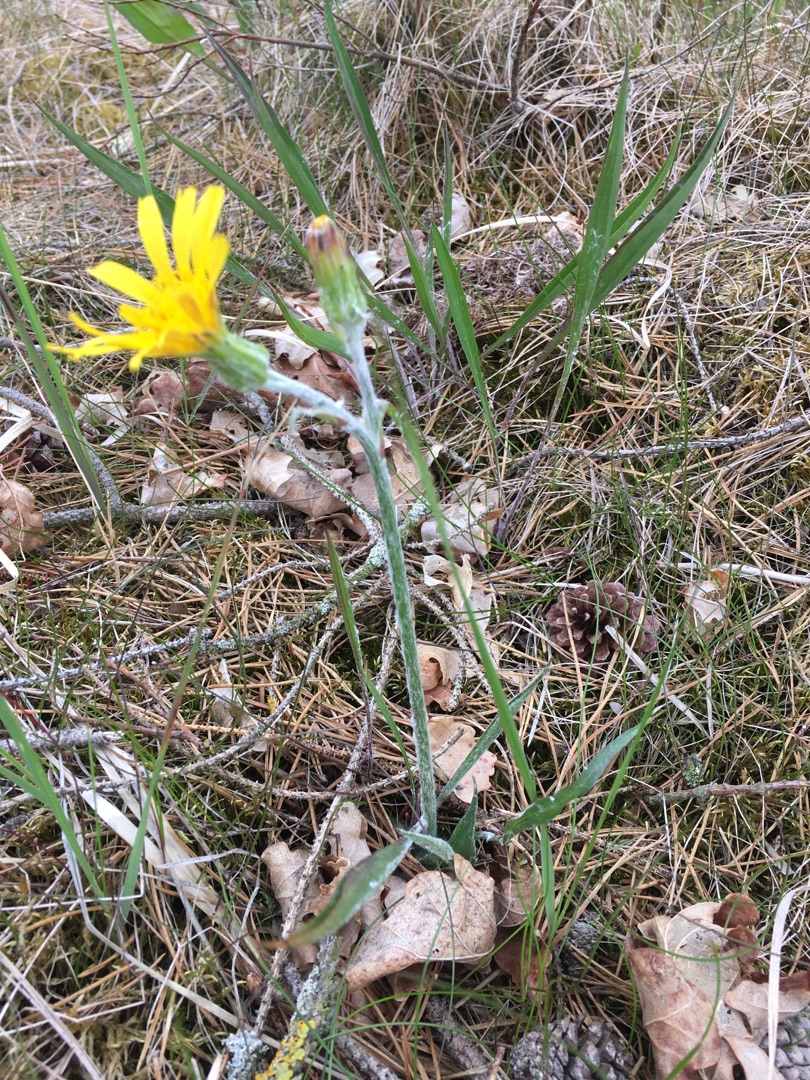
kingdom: Plantae
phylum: Tracheophyta
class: Magnoliopsida
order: Asterales
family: Asteraceae
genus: Scorzonera
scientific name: Scorzonera humilis
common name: Lav skorsoner
